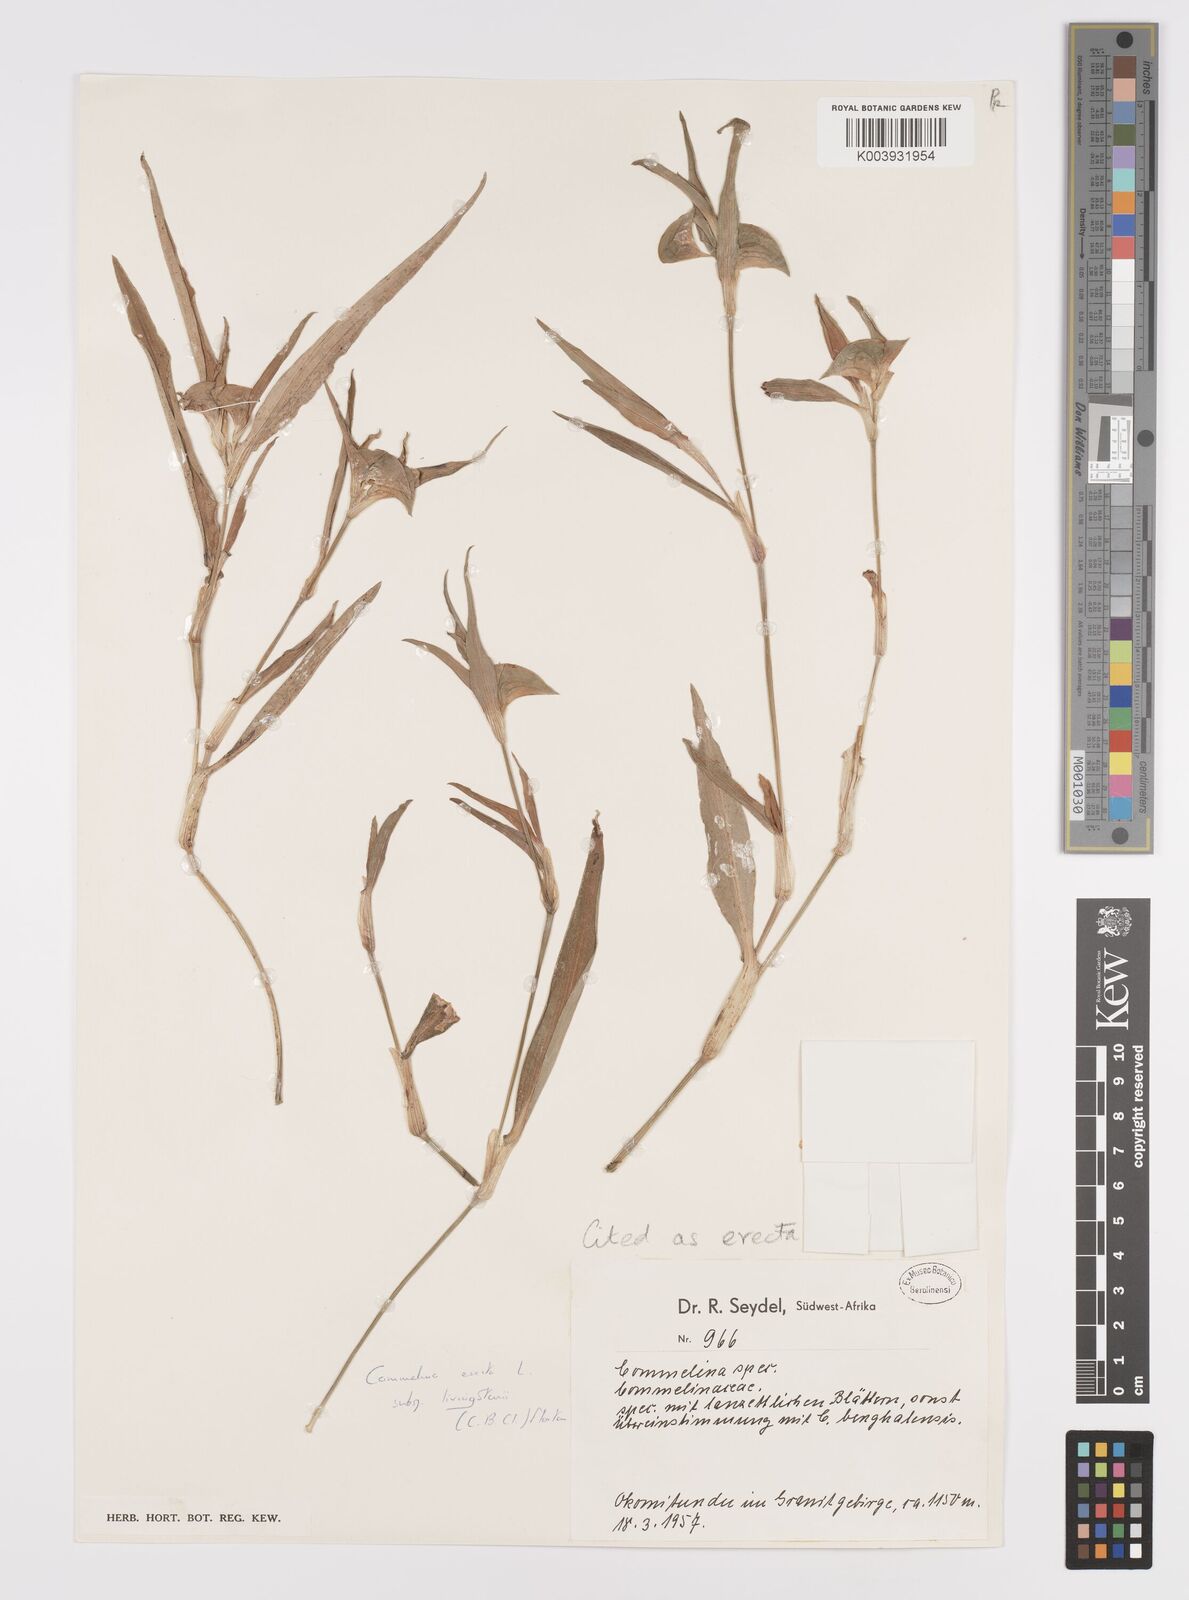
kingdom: Plantae
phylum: Tracheophyta
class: Liliopsida
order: Commelinales
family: Commelinaceae
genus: Commelina
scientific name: Commelina erecta
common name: Blousel blommetjie
